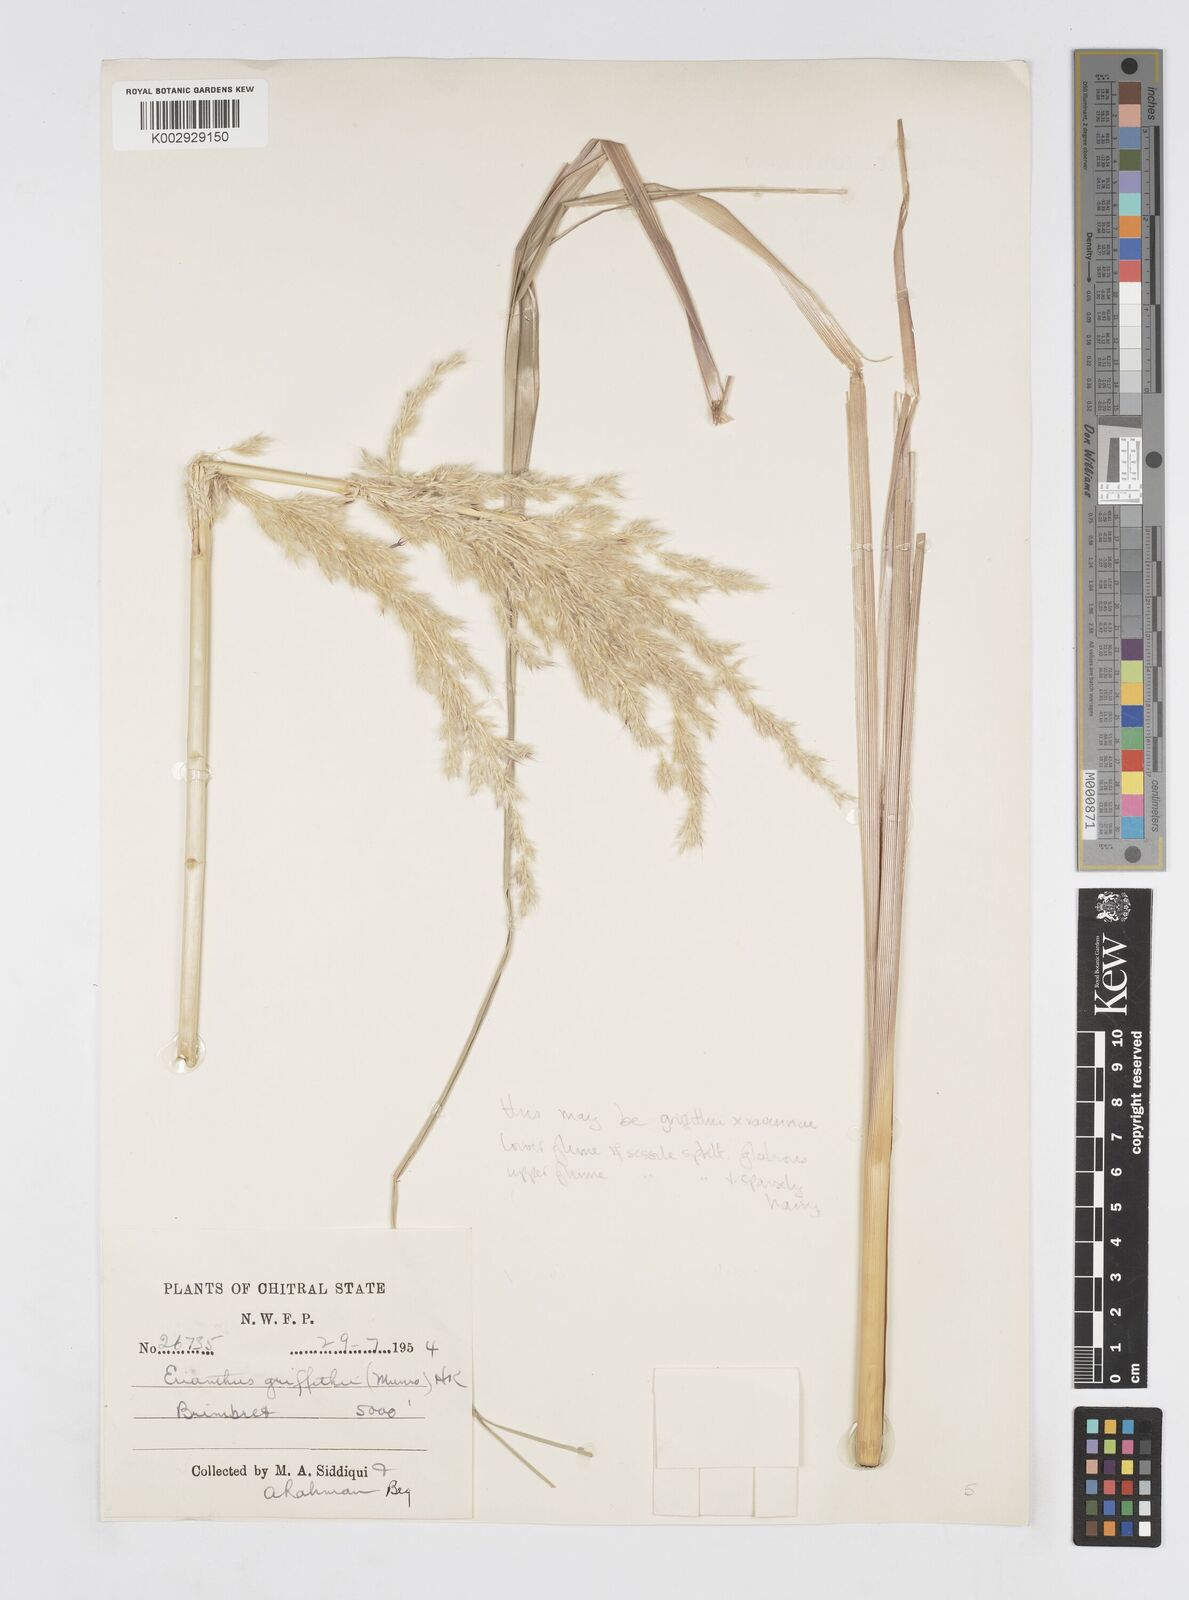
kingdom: Plantae
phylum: Tracheophyta
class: Liliopsida
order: Poales
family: Poaceae
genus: Saccharum
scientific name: Saccharum
